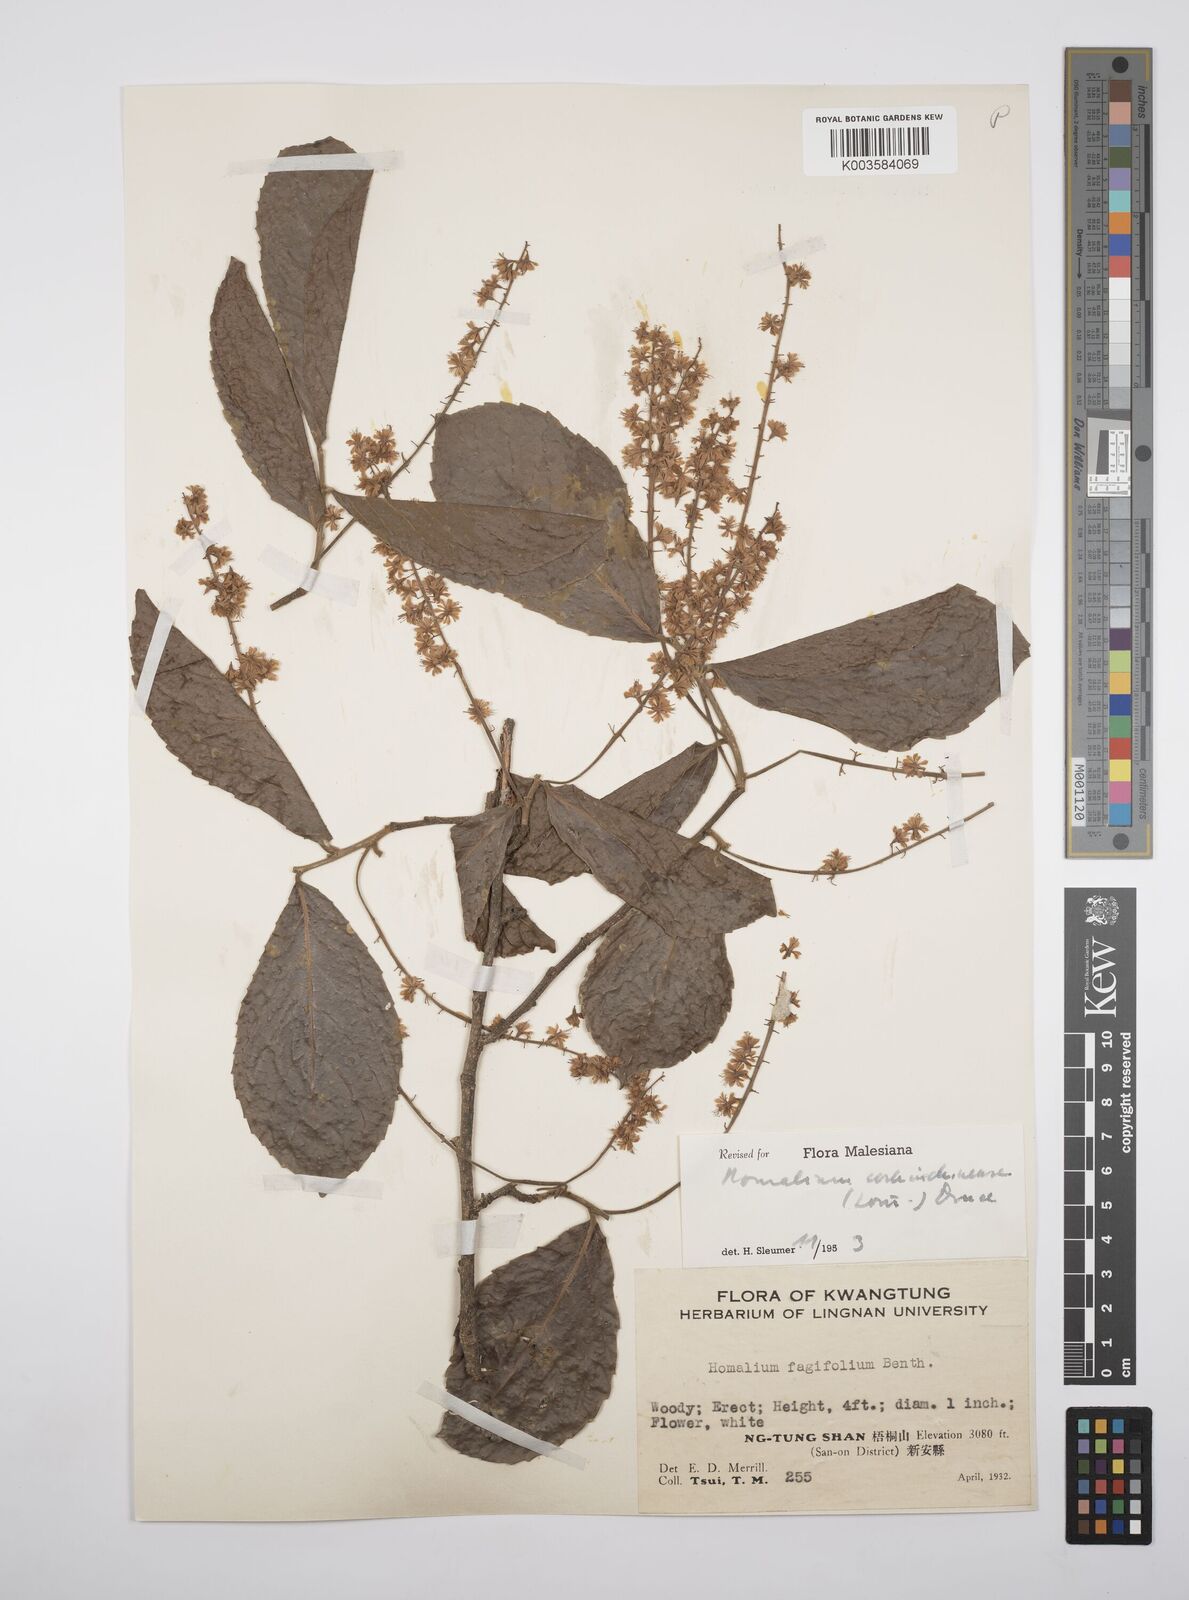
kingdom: Plantae
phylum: Tracheophyta
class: Magnoliopsida
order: Malpighiales
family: Salicaceae
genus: Homalium
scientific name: Homalium cochinchinensis
